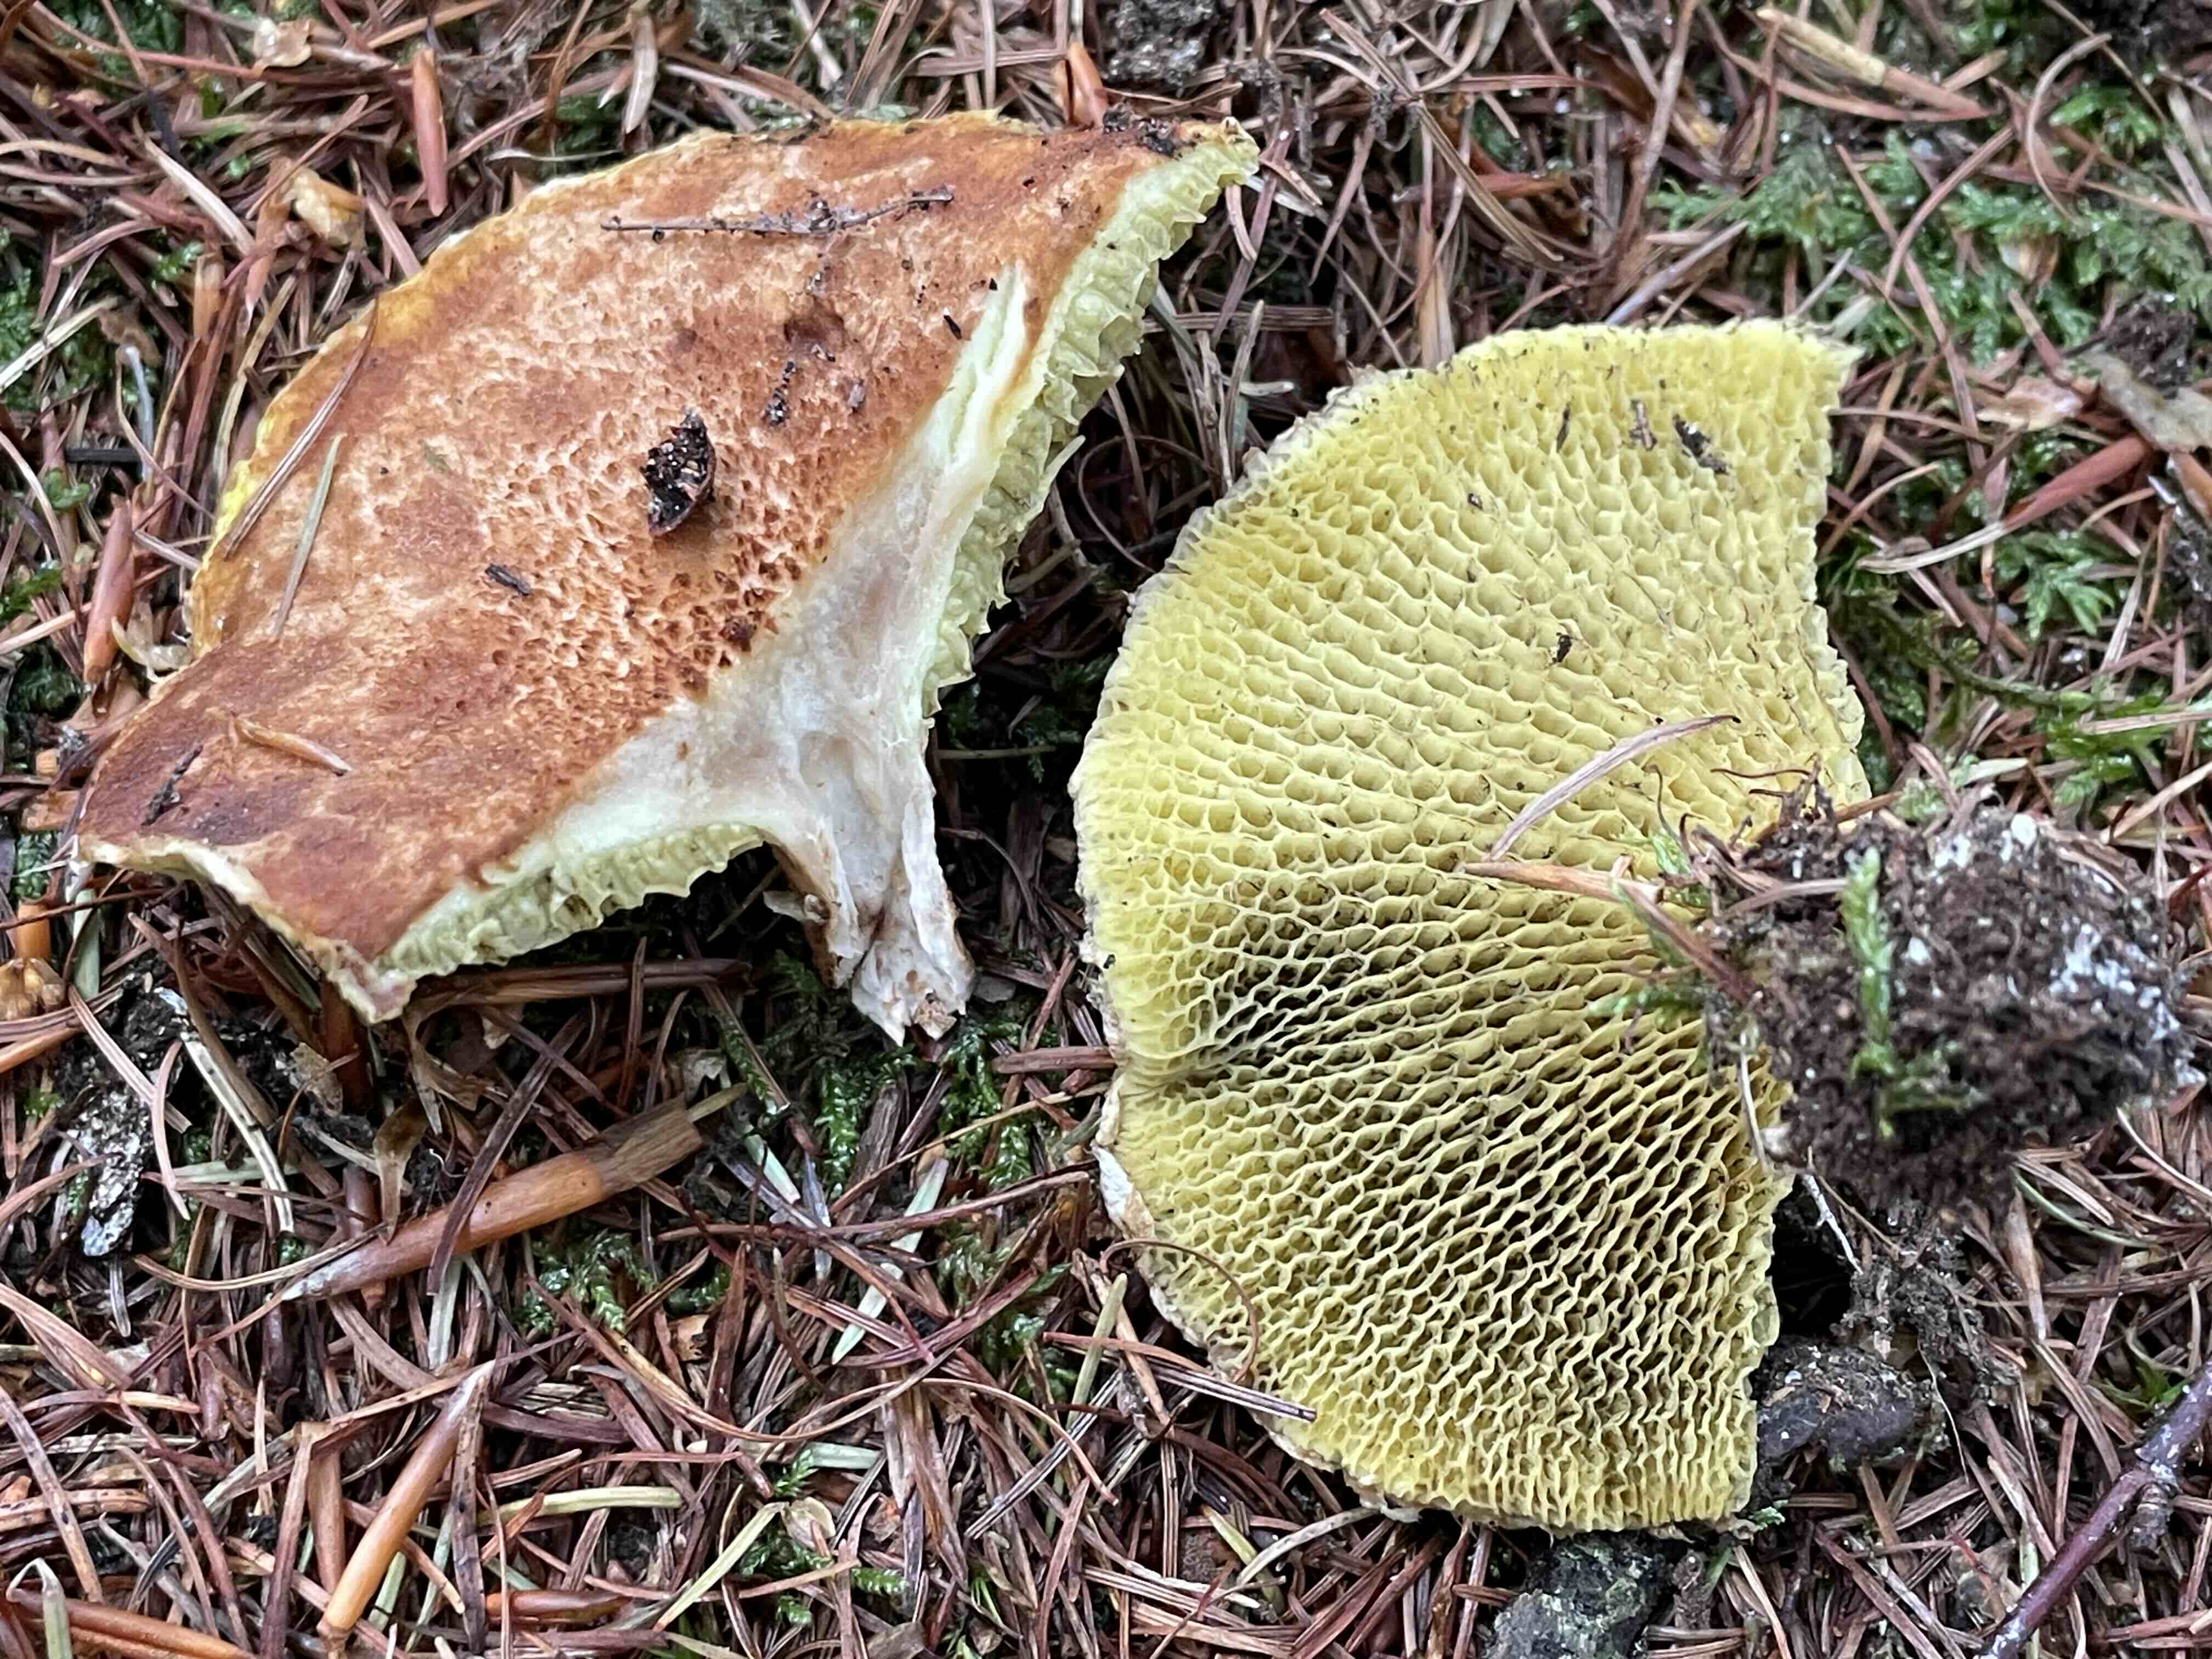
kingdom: Fungi
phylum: Basidiomycota
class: Agaricomycetes
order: Boletales
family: Suillaceae
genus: Suillus
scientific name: Suillus cavipes
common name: hulstokket slimrørhat
